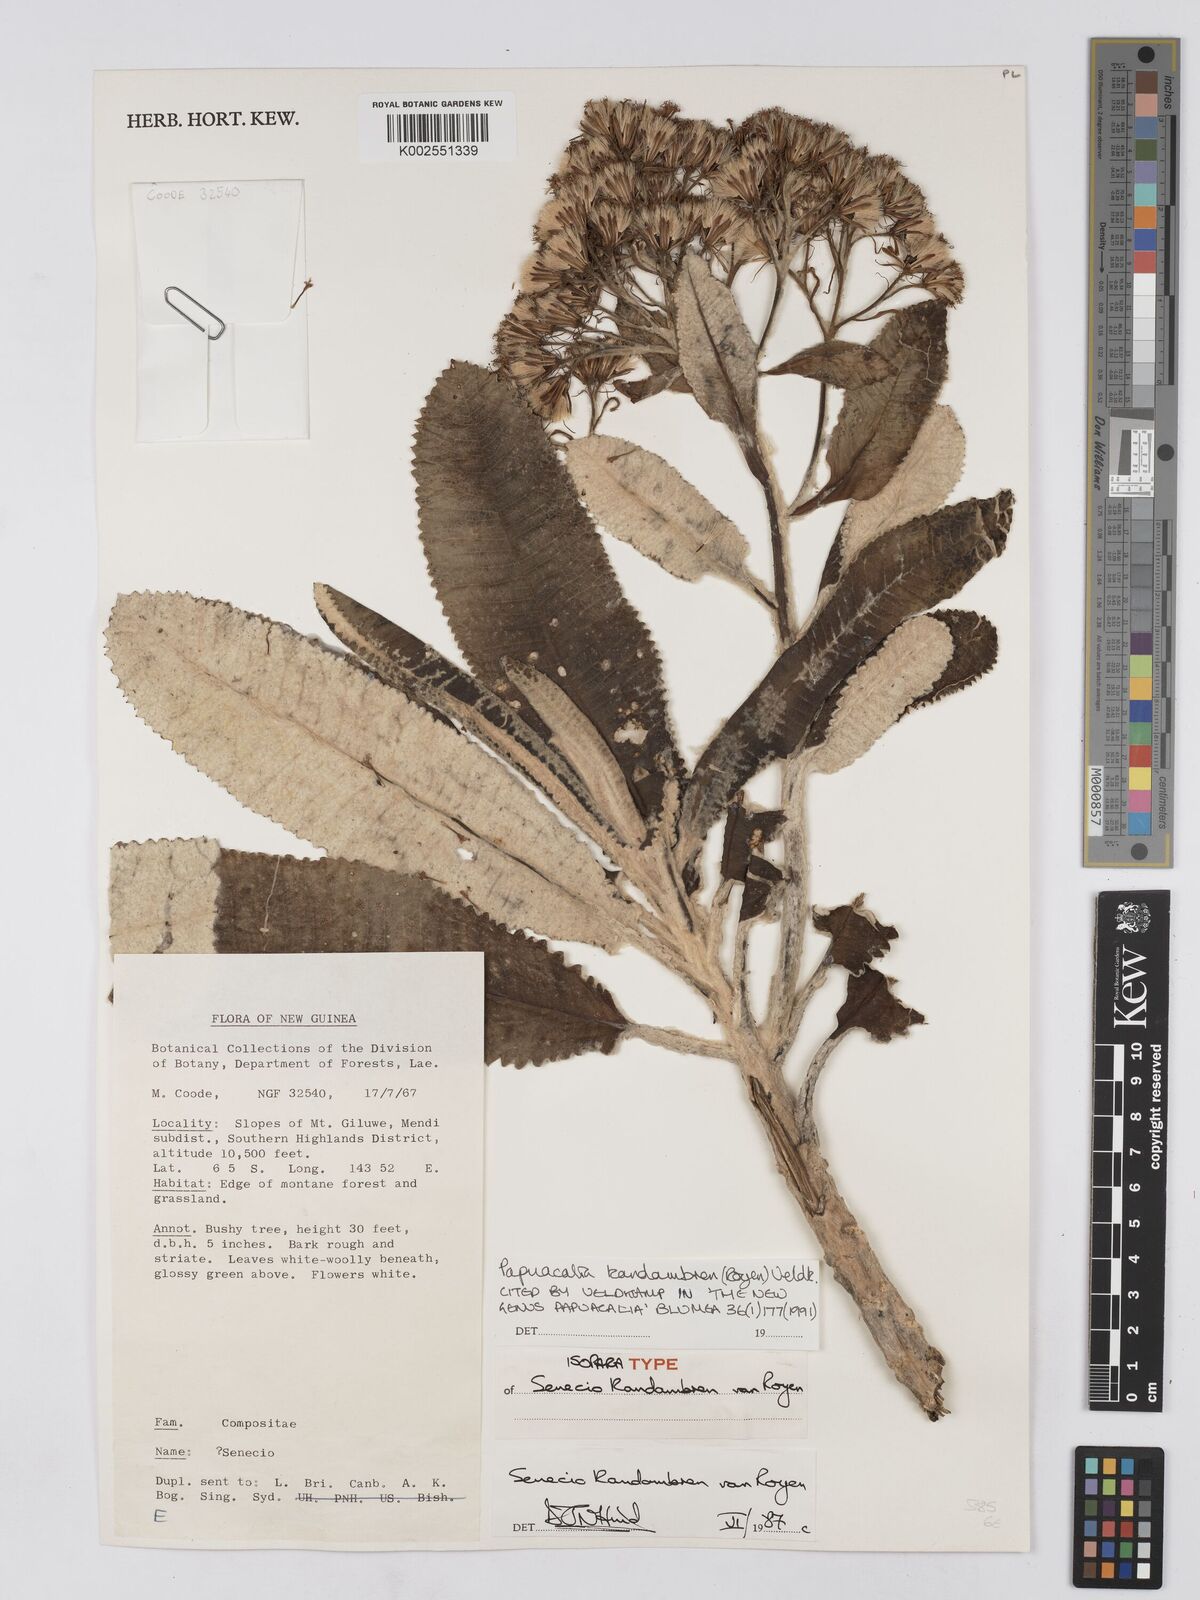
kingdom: Plantae
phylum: Tracheophyta
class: Magnoliopsida
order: Asterales
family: Asteraceae
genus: Papuacalia
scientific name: Papuacalia kandambren
